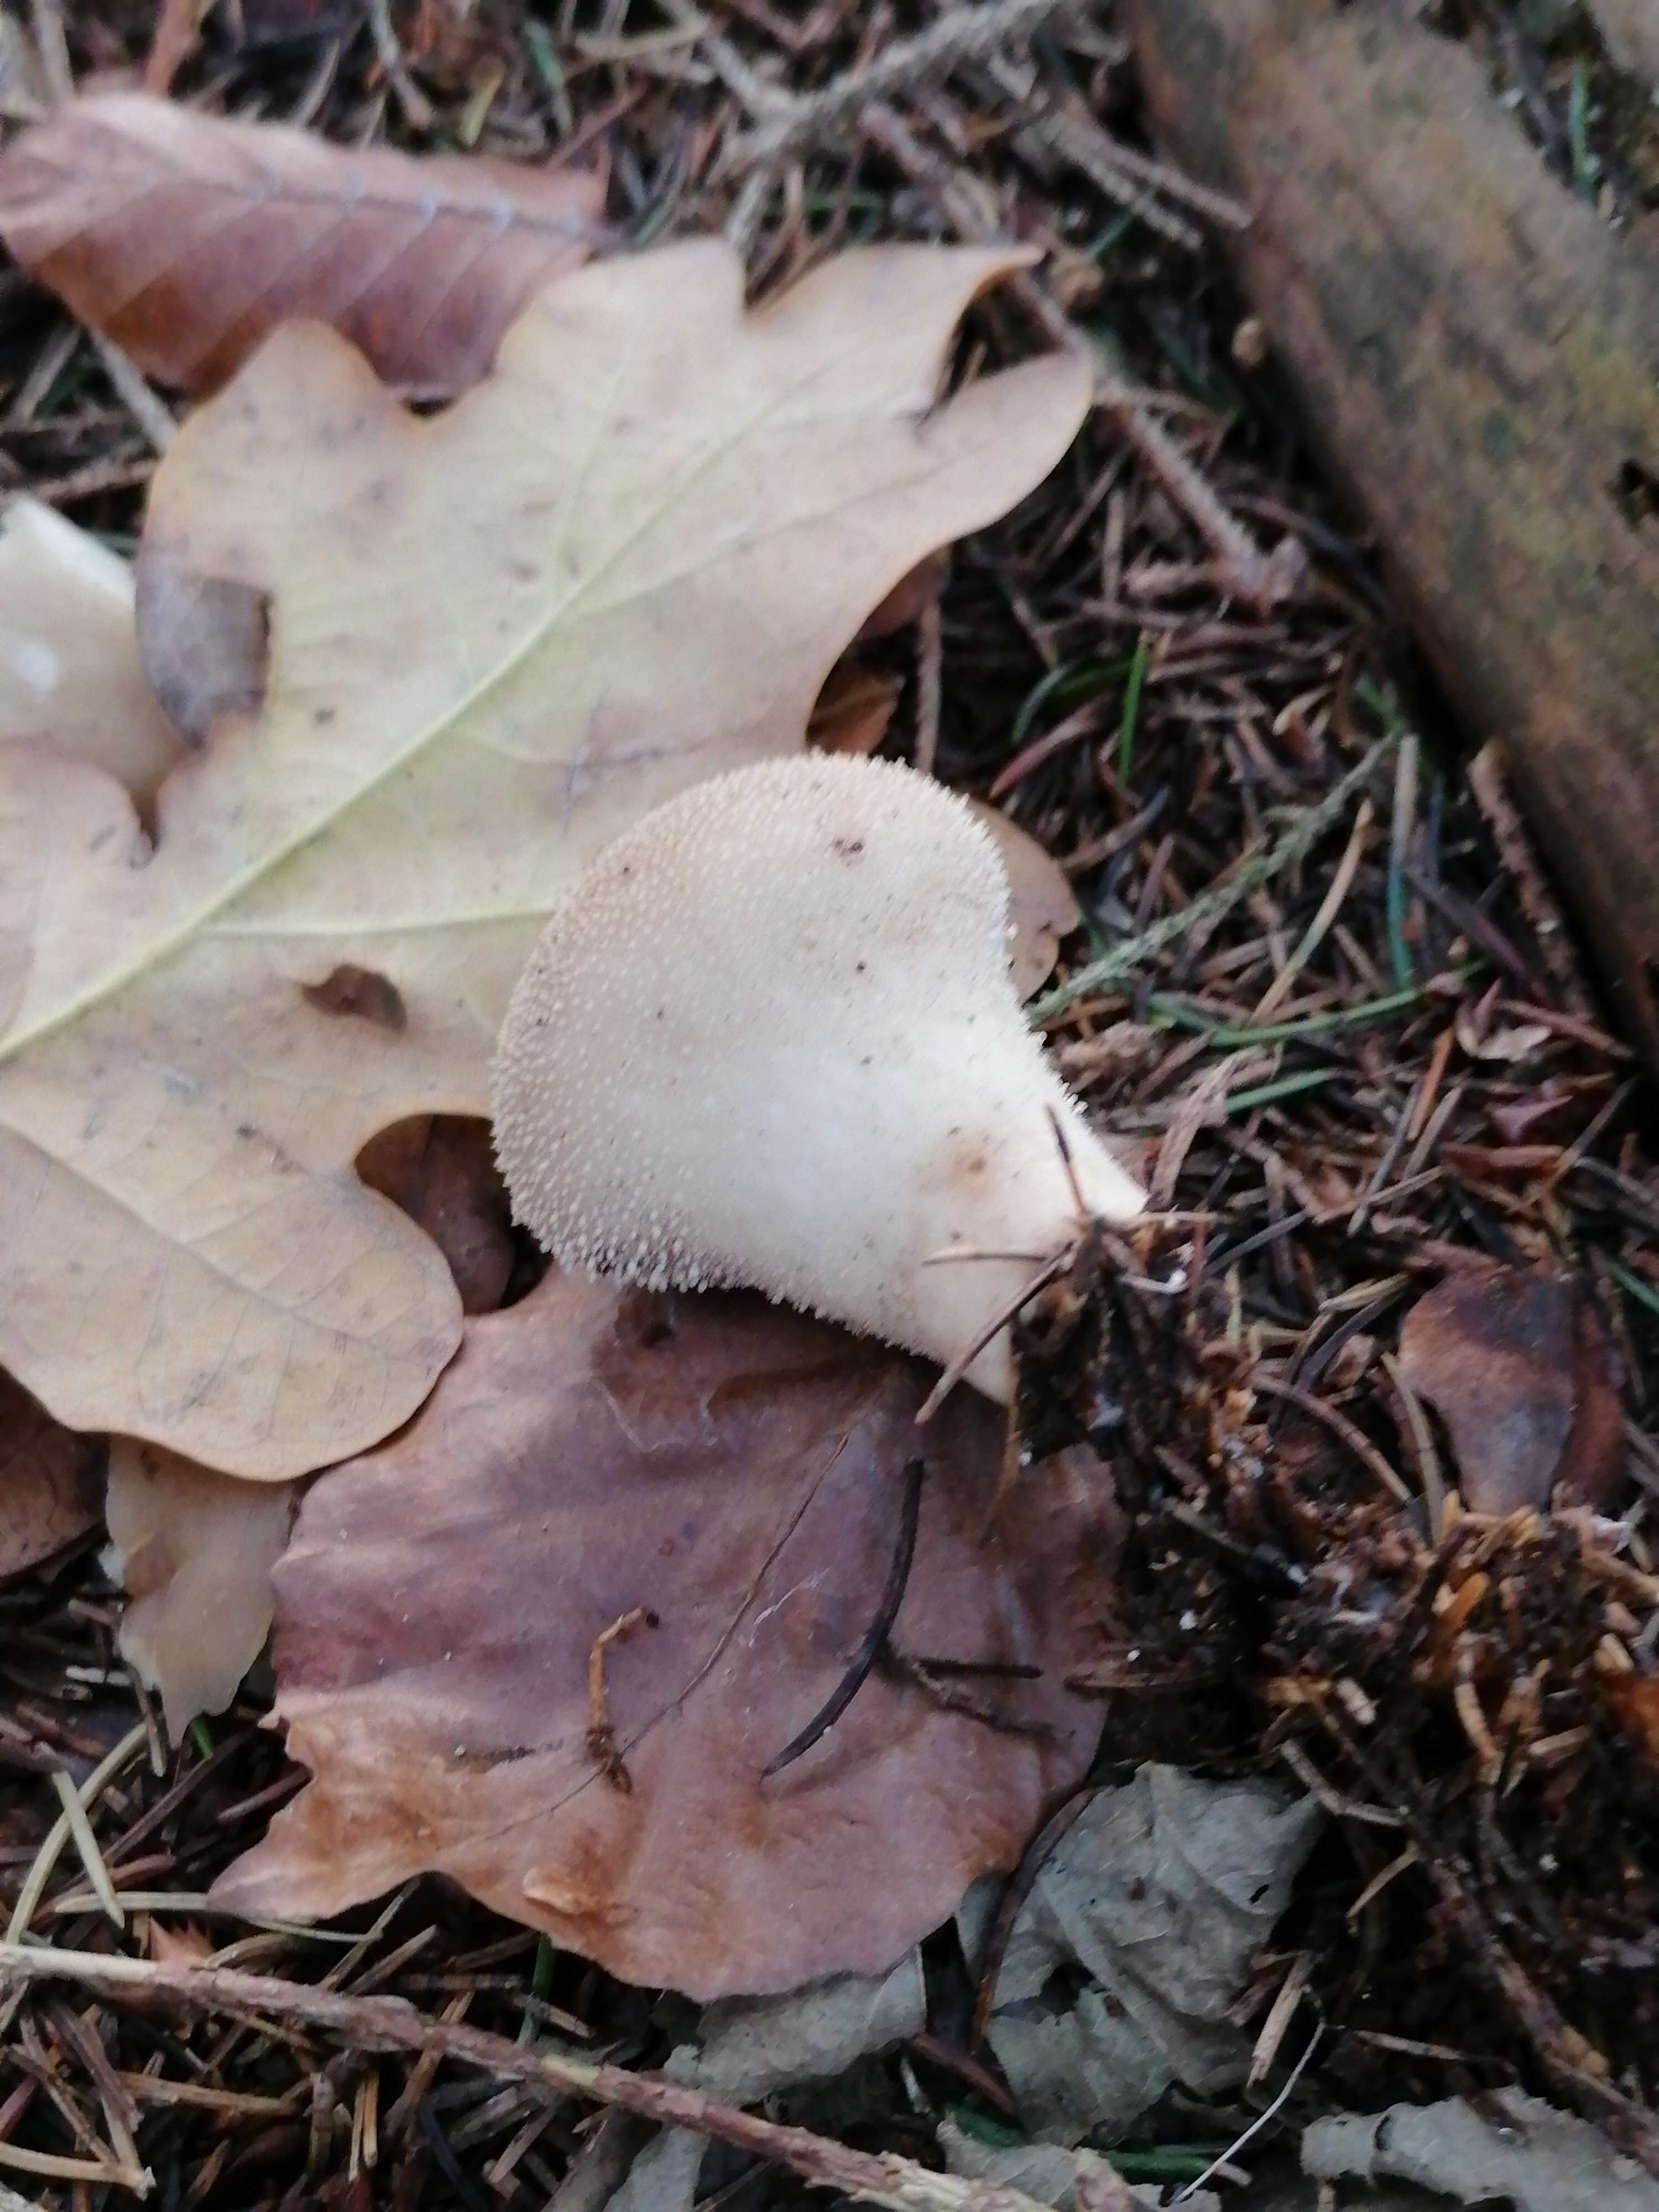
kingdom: Fungi
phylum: Basidiomycota
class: Agaricomycetes
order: Agaricales
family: Lycoperdaceae
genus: Lycoperdon
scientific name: Lycoperdon perlatum
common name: krystal-støvbold
